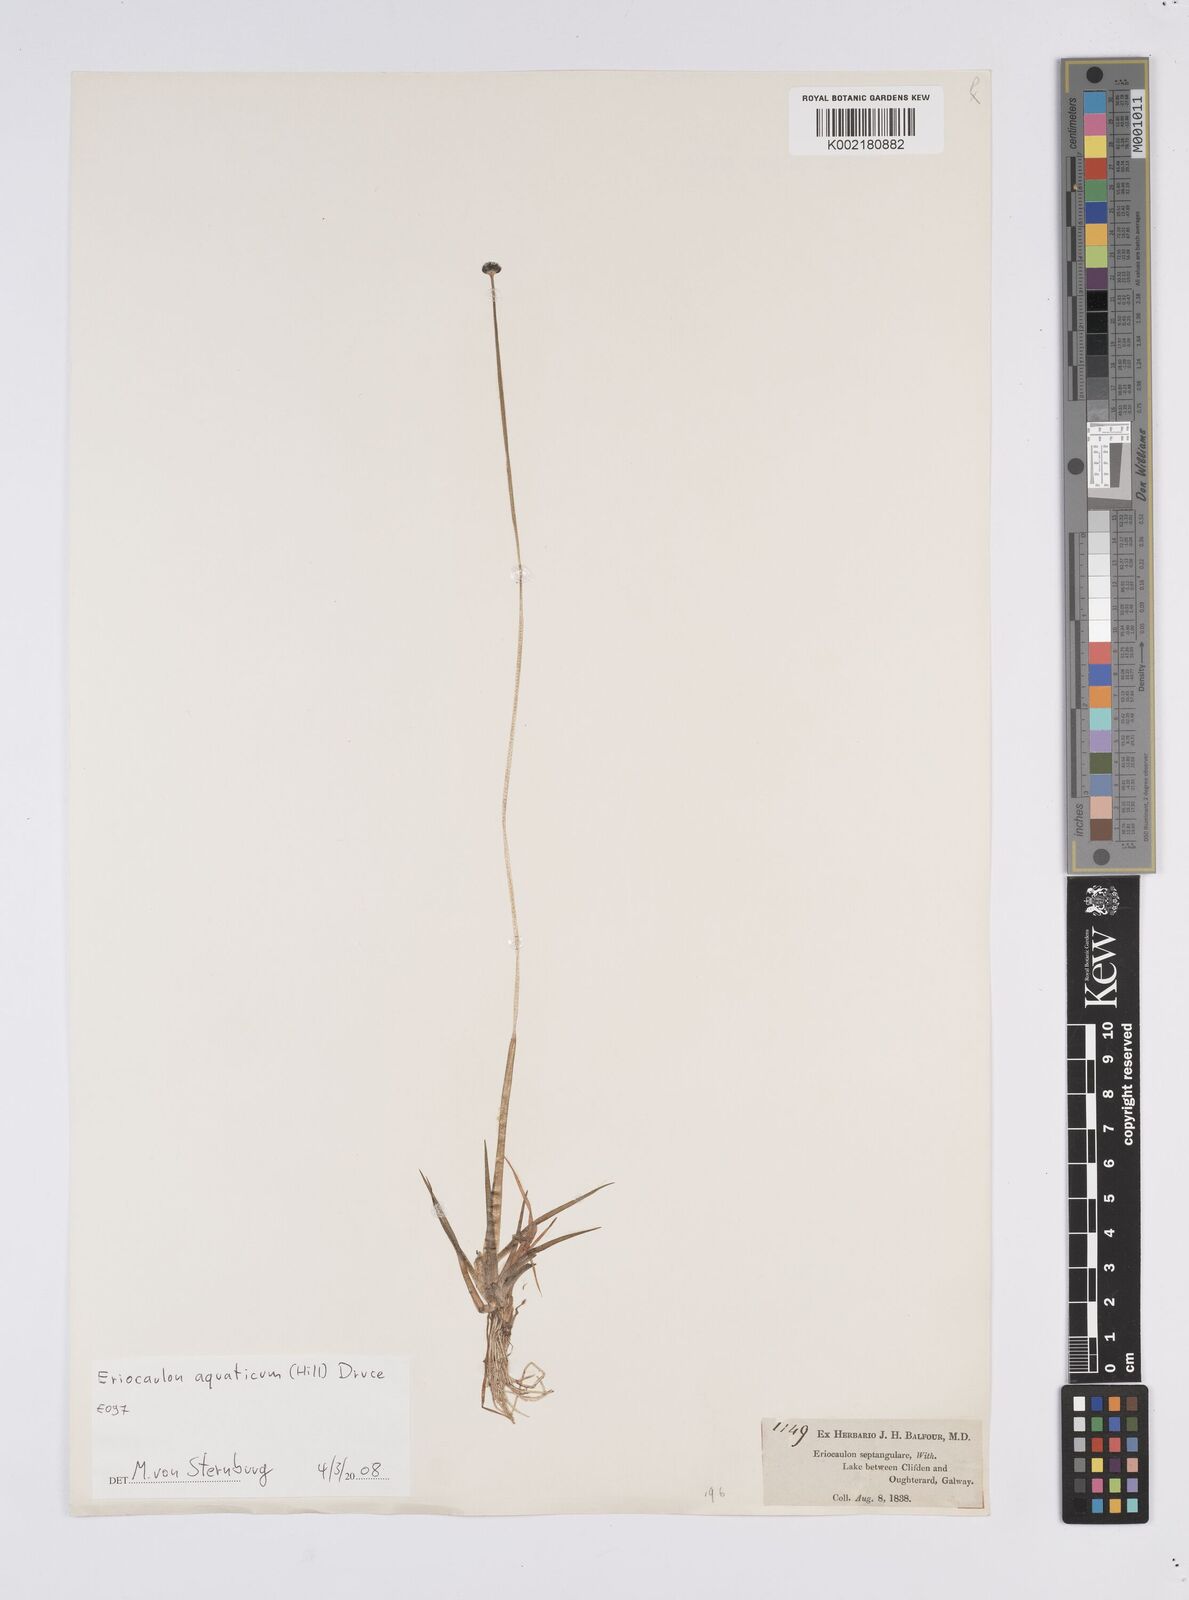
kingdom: Plantae
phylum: Tracheophyta
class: Liliopsida
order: Poales
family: Eriocaulaceae
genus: Eriocaulon
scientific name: Eriocaulon aquaticum
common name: Pipewort
